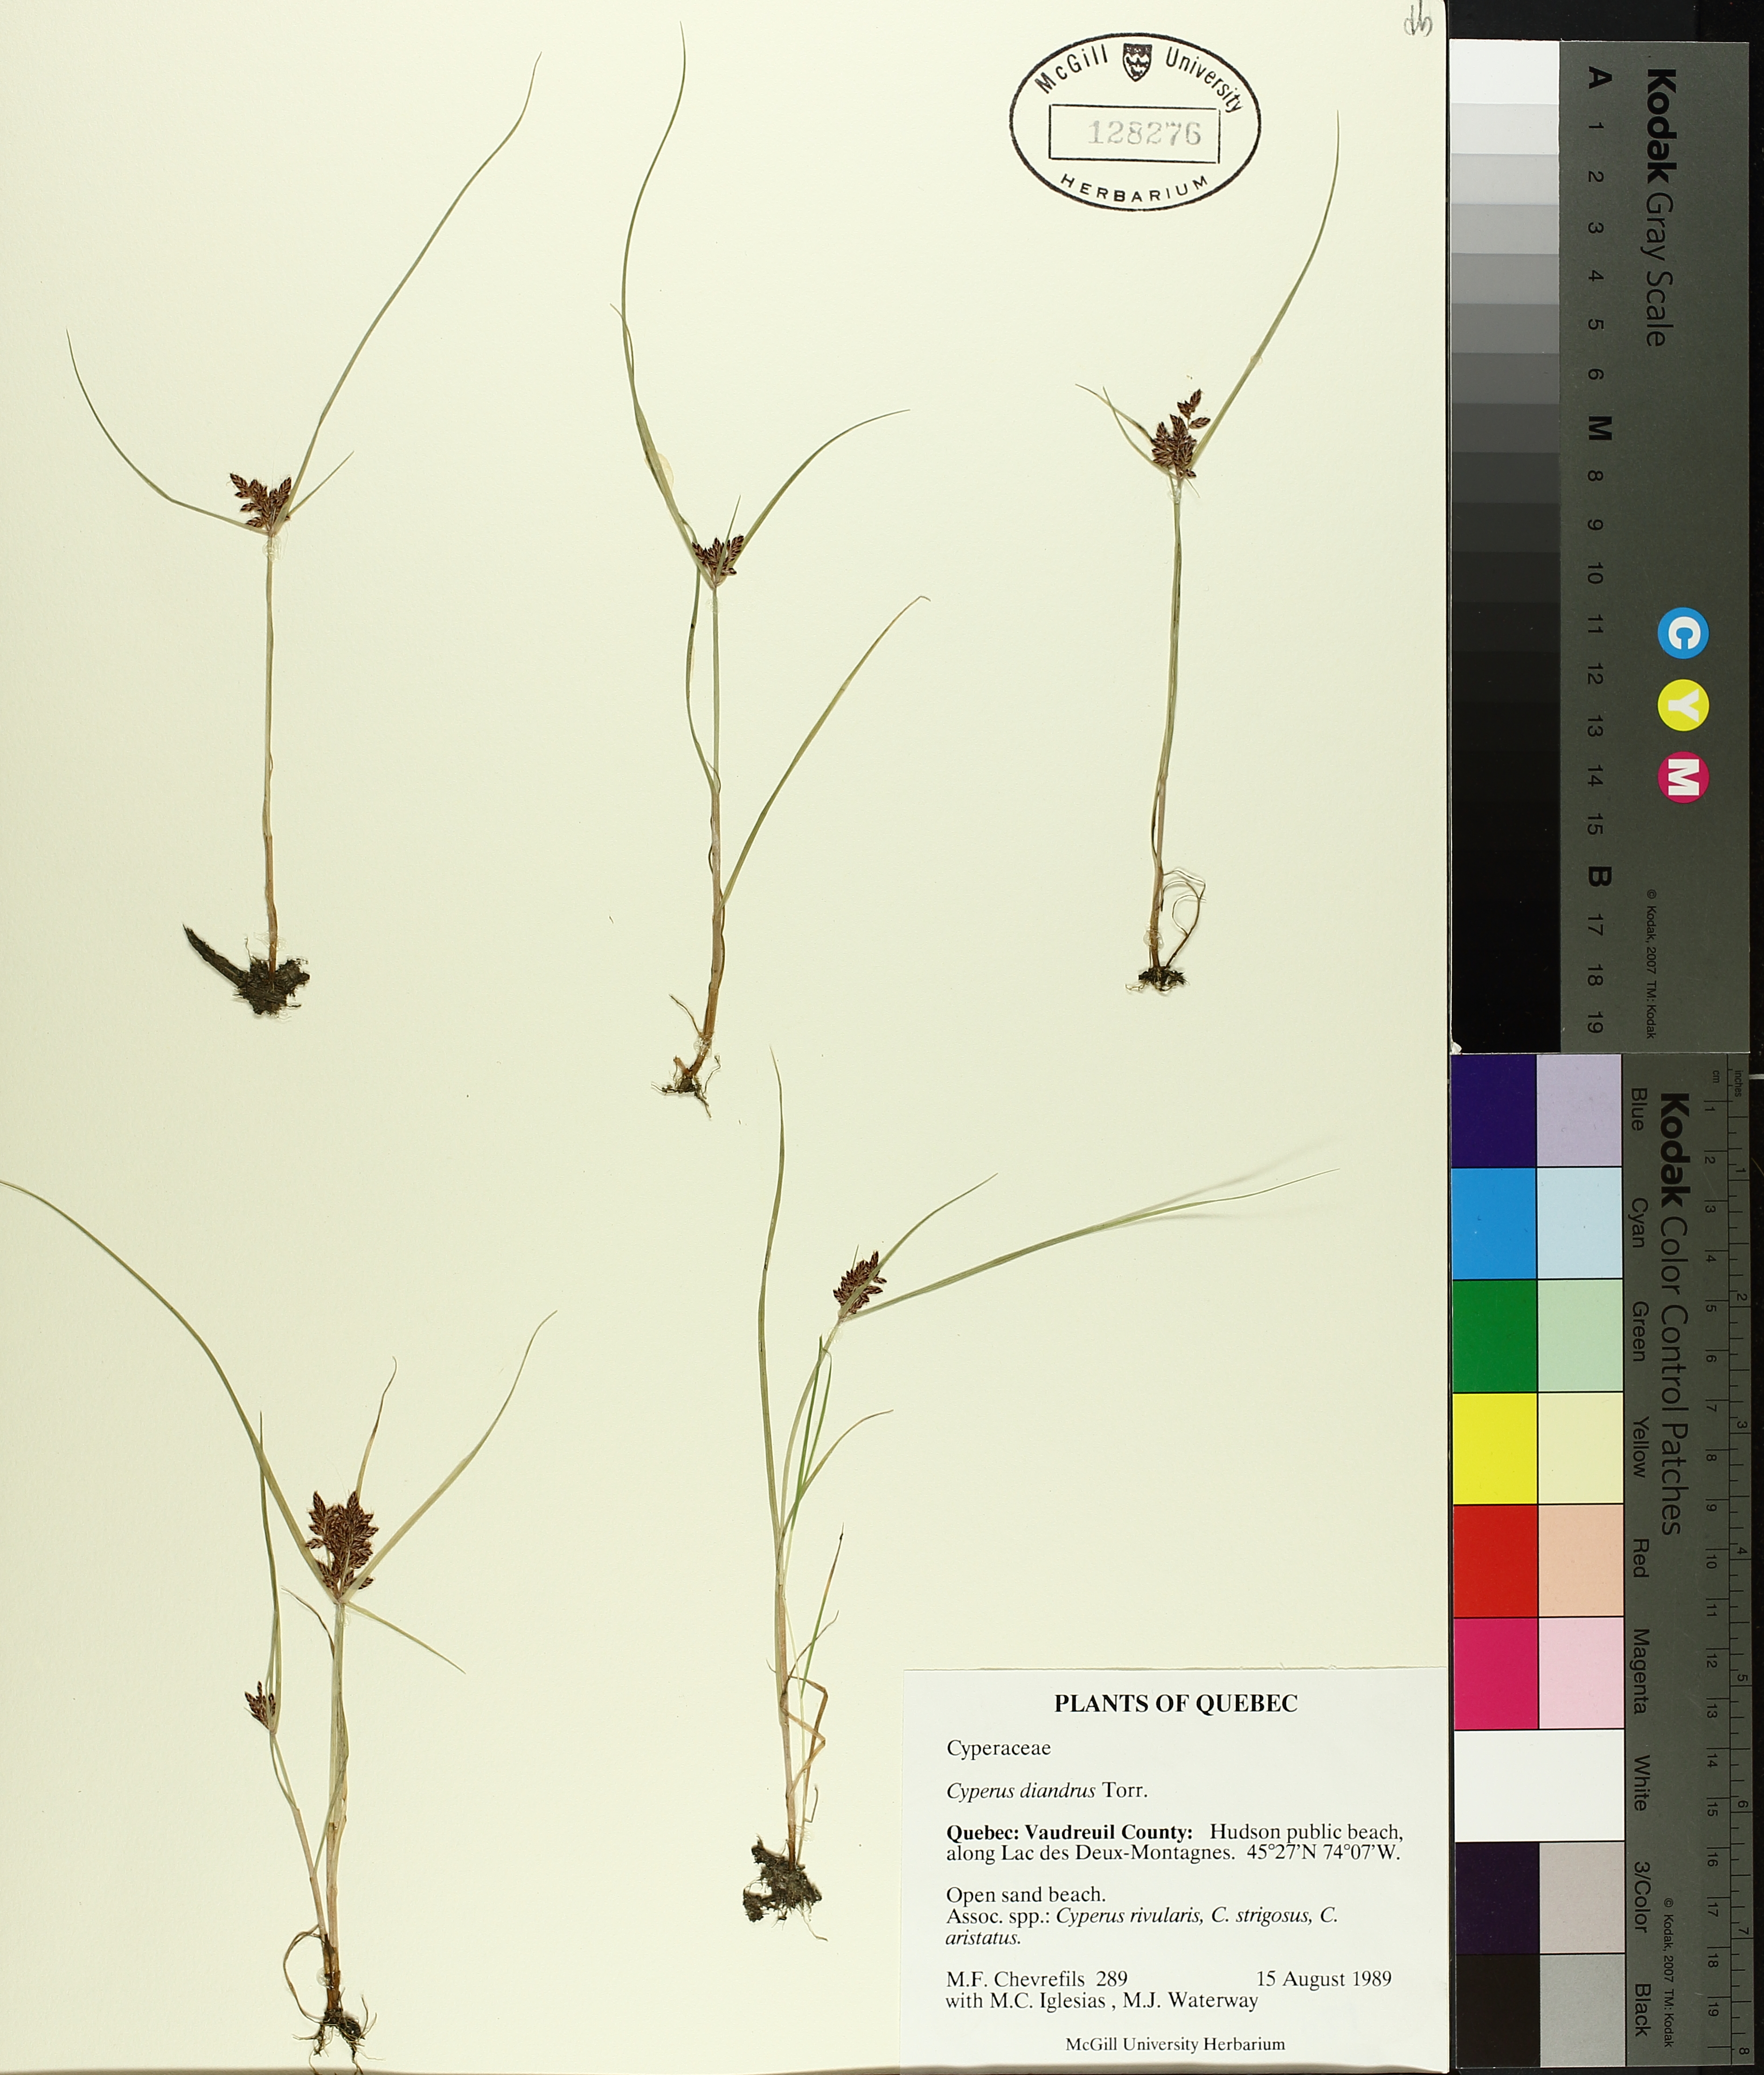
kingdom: Plantae
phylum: Tracheophyta
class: Liliopsida
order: Poales
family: Cyperaceae
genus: Cyperus
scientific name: Cyperus diandrus
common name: Low cyperus
